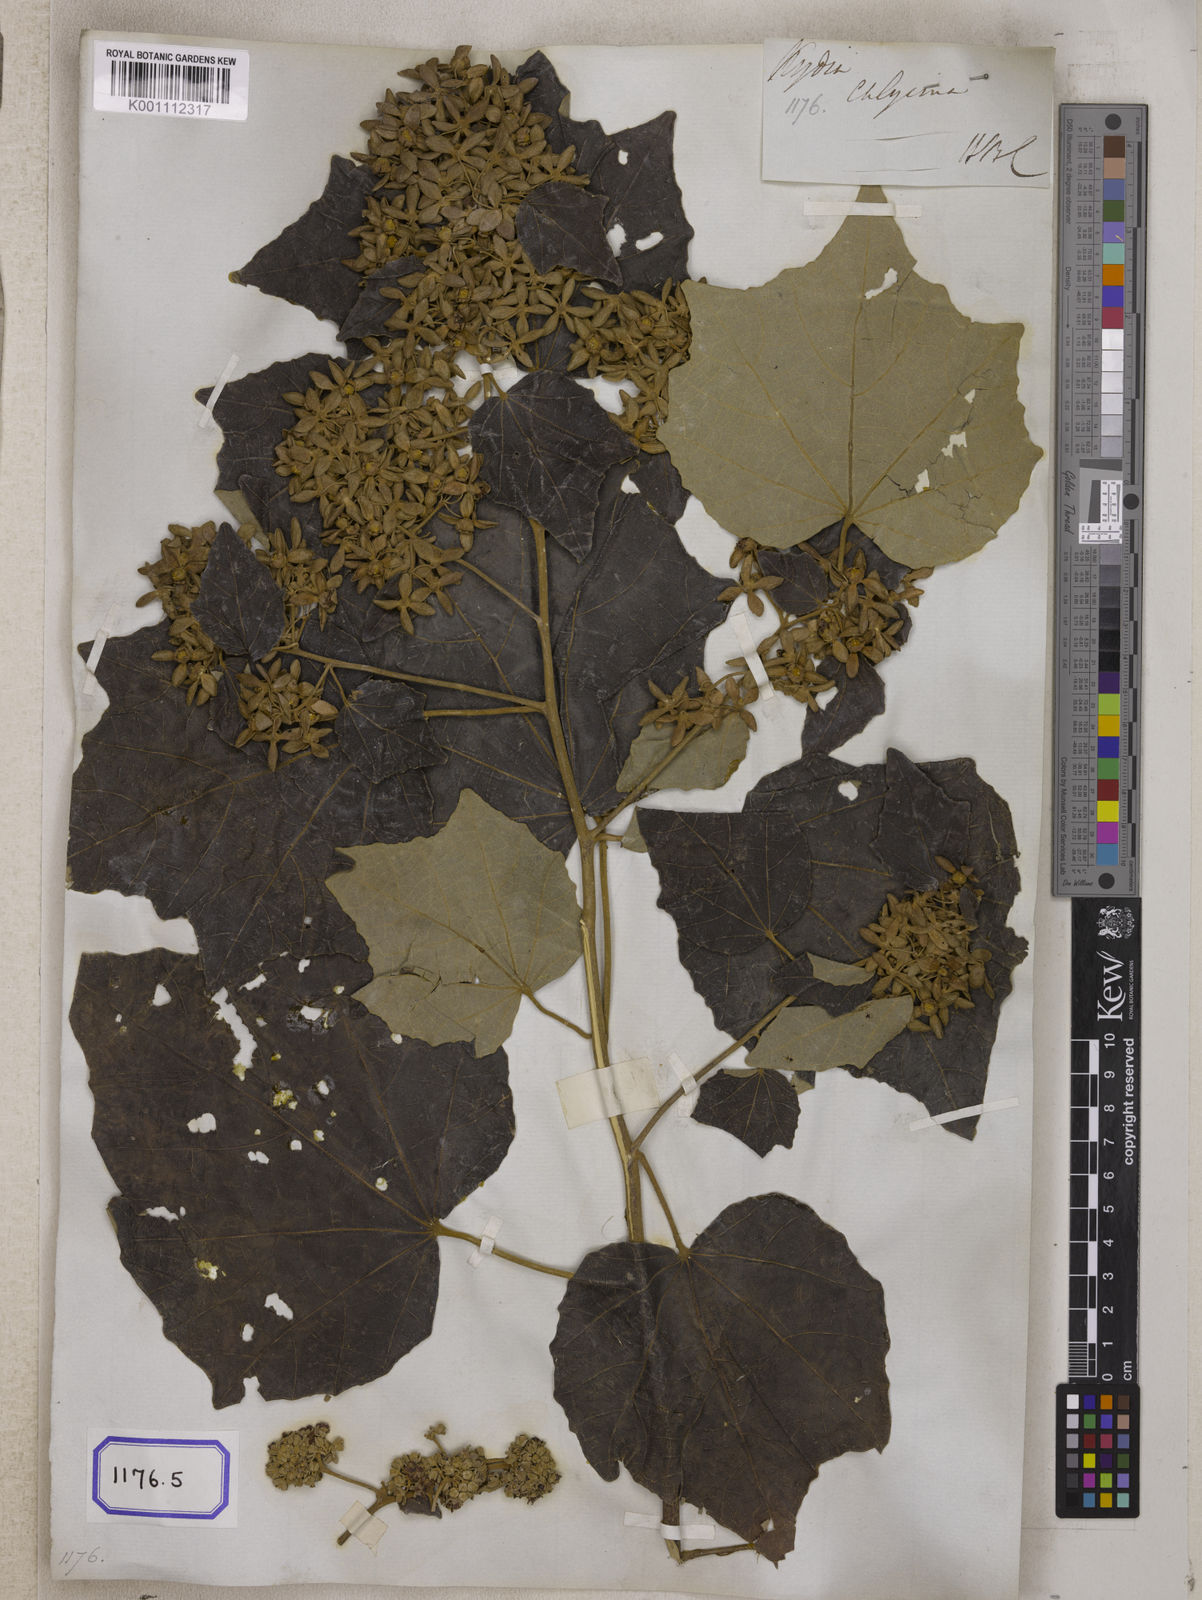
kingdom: Plantae
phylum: Tracheophyta
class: Magnoliopsida
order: Malvales
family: Malvaceae
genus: Kydia
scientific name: Kydia
